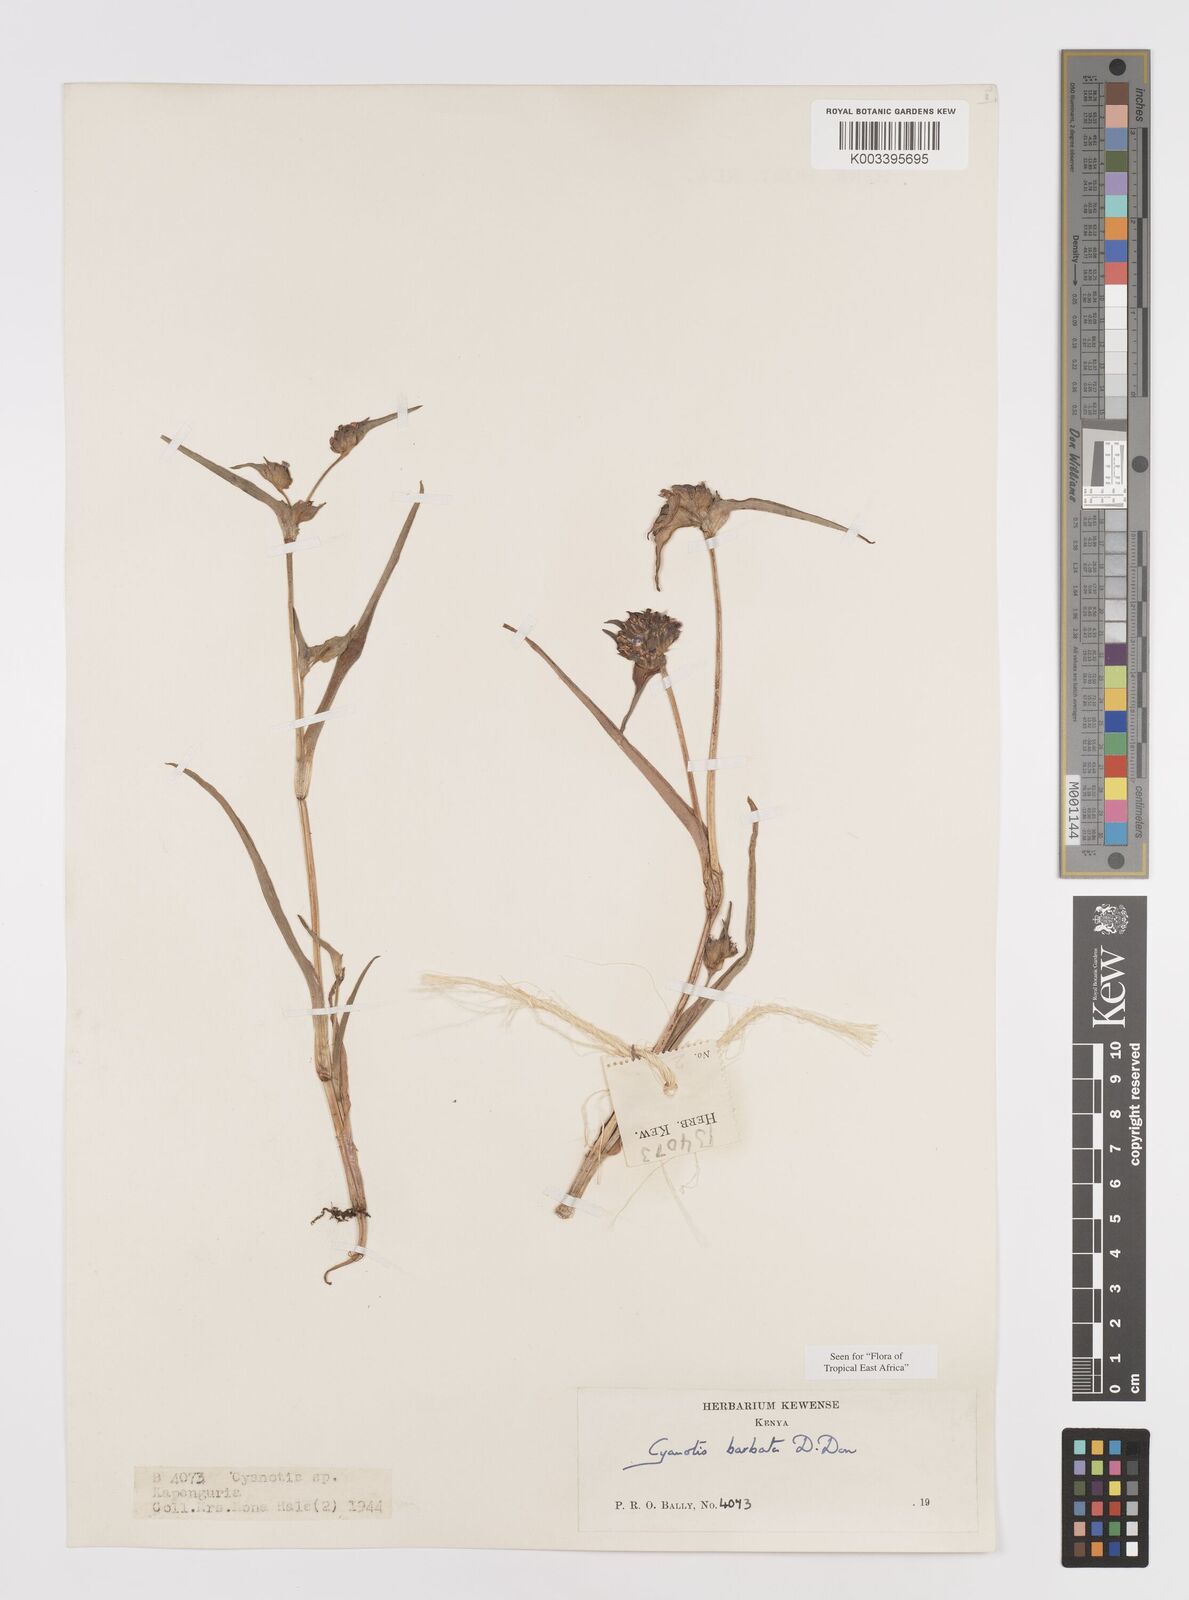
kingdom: Plantae
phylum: Tracheophyta
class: Liliopsida
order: Commelinales
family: Commelinaceae
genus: Cyanotis
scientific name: Cyanotis vaga
